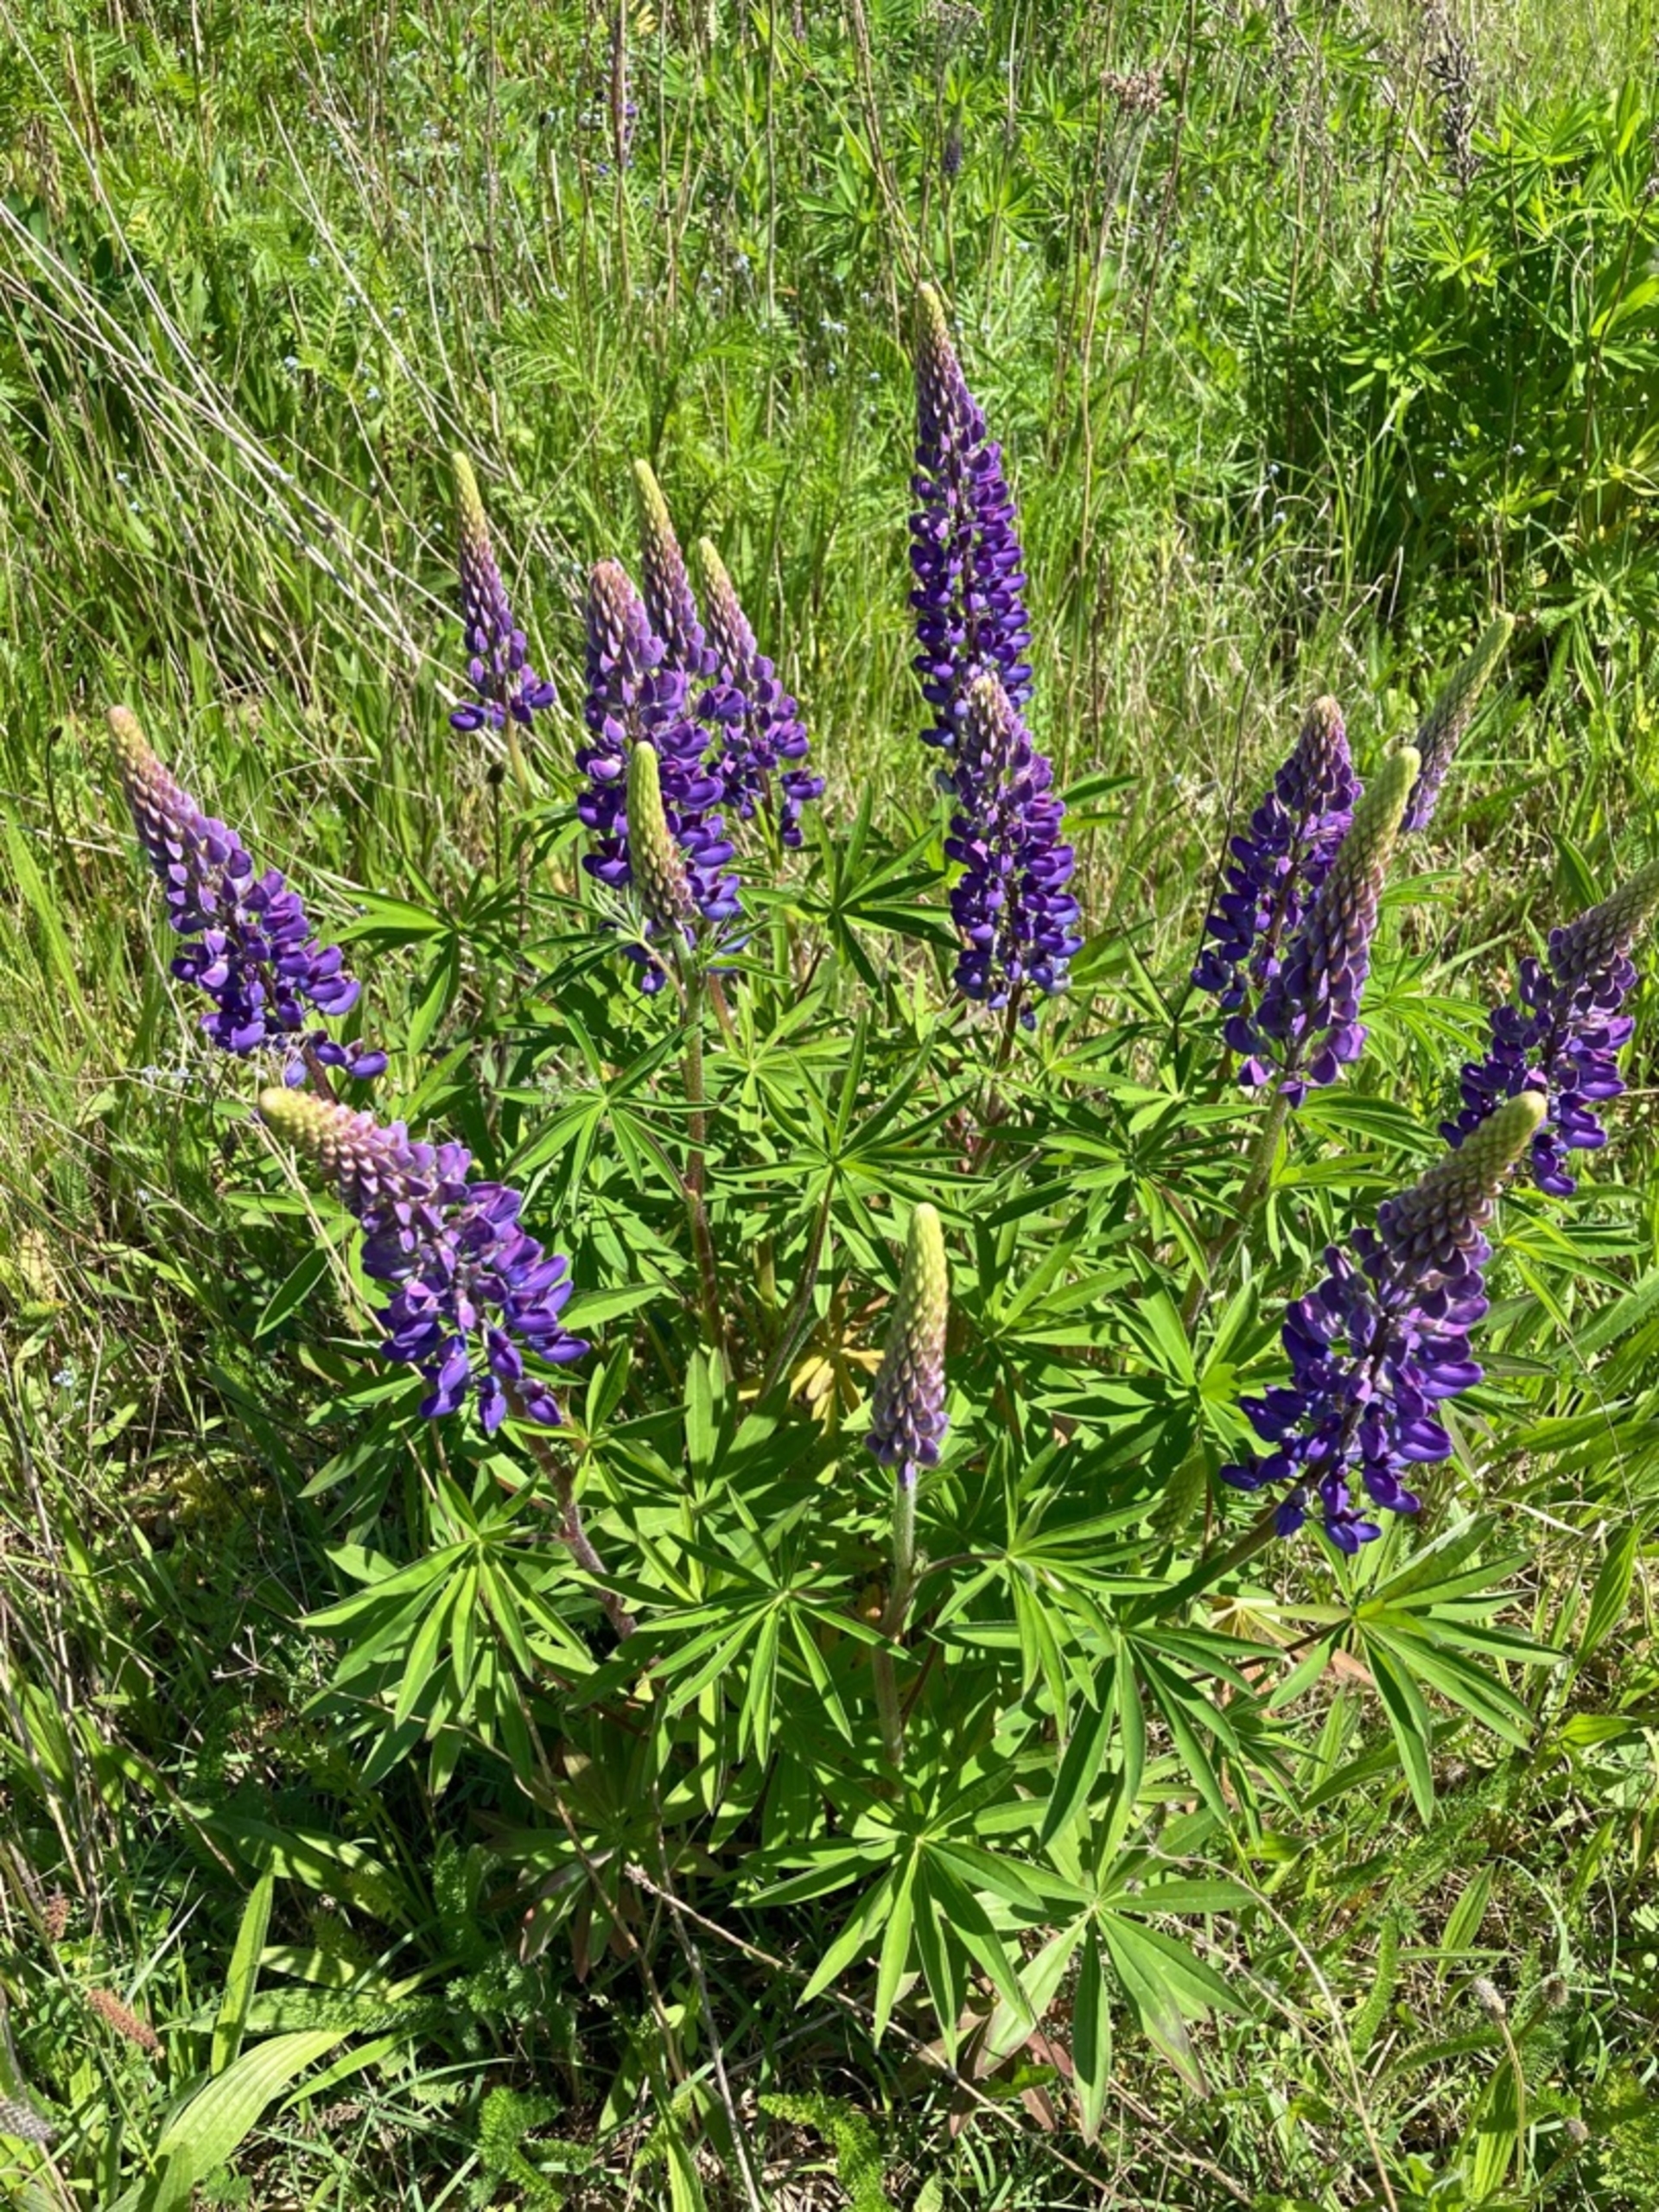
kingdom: Plantae
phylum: Tracheophyta
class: Magnoliopsida
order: Fabales
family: Fabaceae
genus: Lupinus
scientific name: Lupinus polyphyllus
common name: Mangebladet lupin
